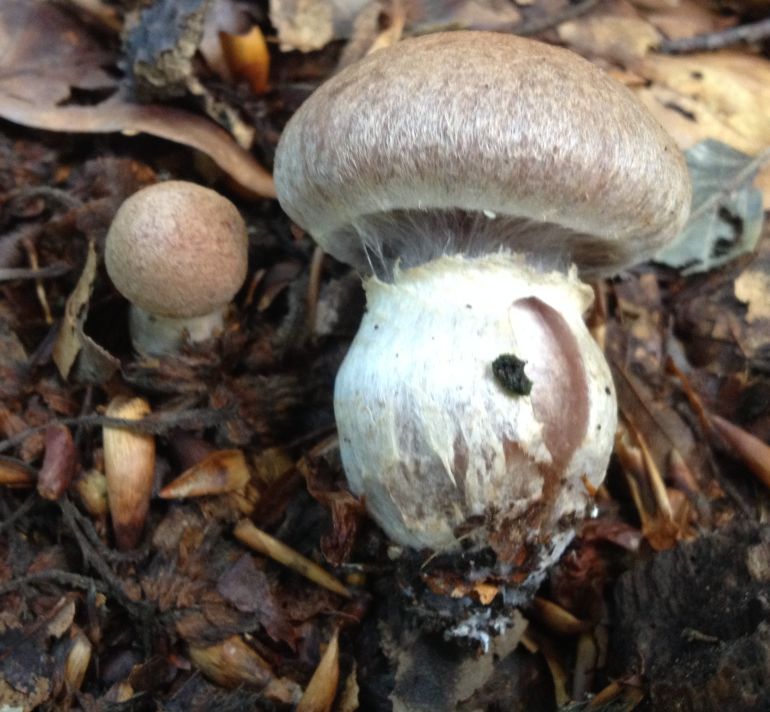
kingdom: Fungi
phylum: Basidiomycota
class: Agaricomycetes
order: Agaricales
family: Cortinariaceae
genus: Cortinarius
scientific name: Cortinarius torvus
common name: champignonagtig slørhat
